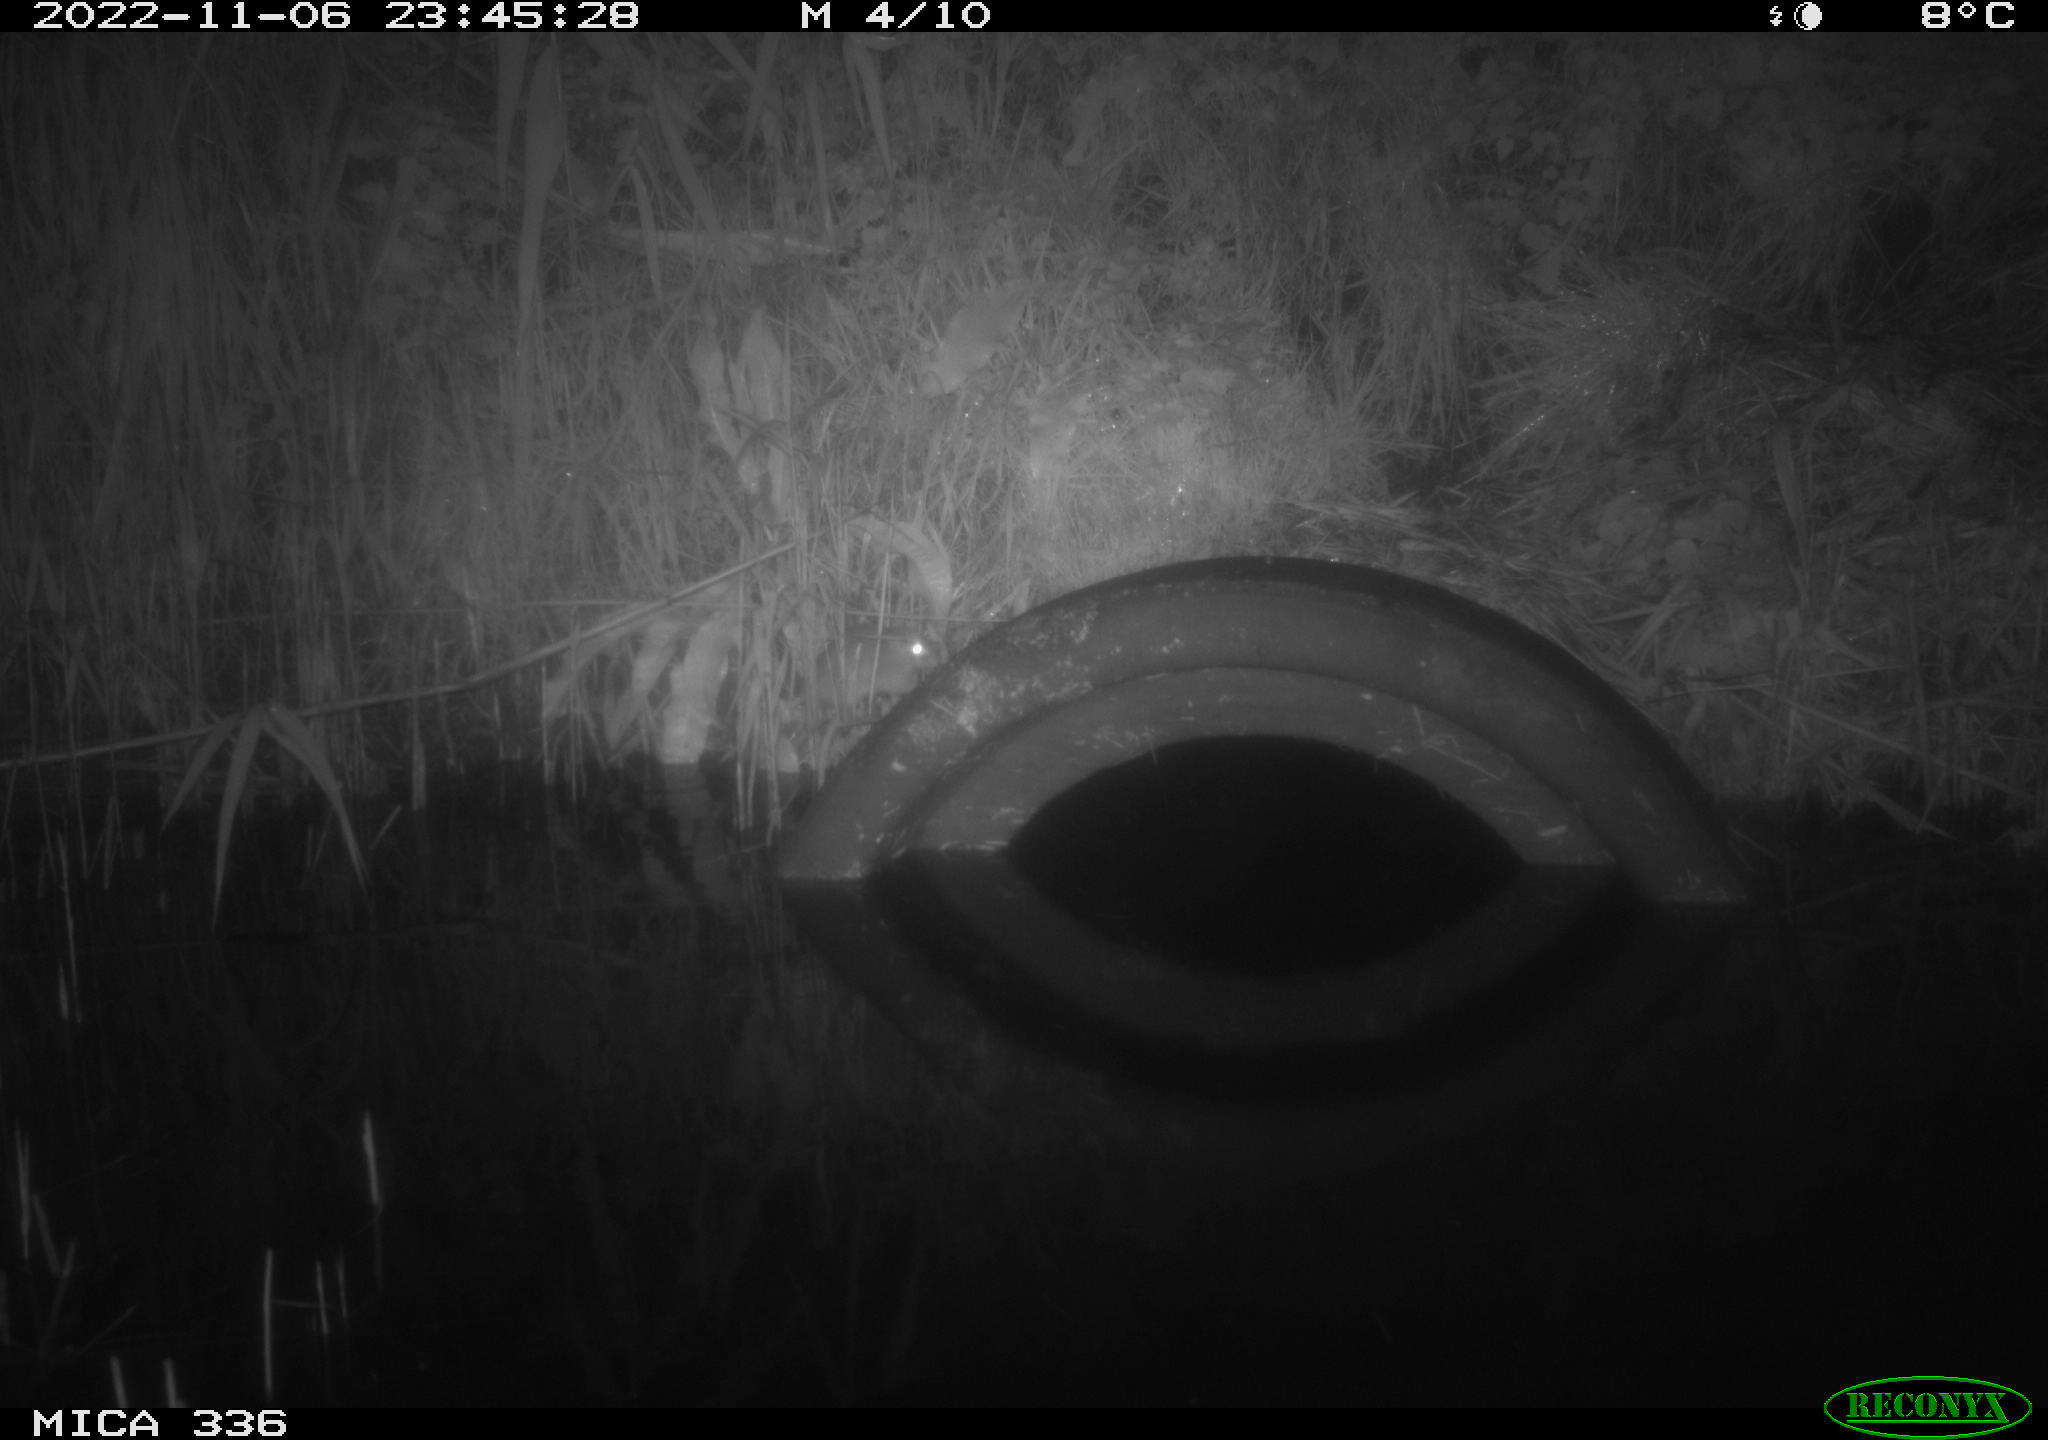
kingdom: Animalia
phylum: Chordata
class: Mammalia
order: Rodentia
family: Muridae
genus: Rattus
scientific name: Rattus norvegicus
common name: Brown rat
